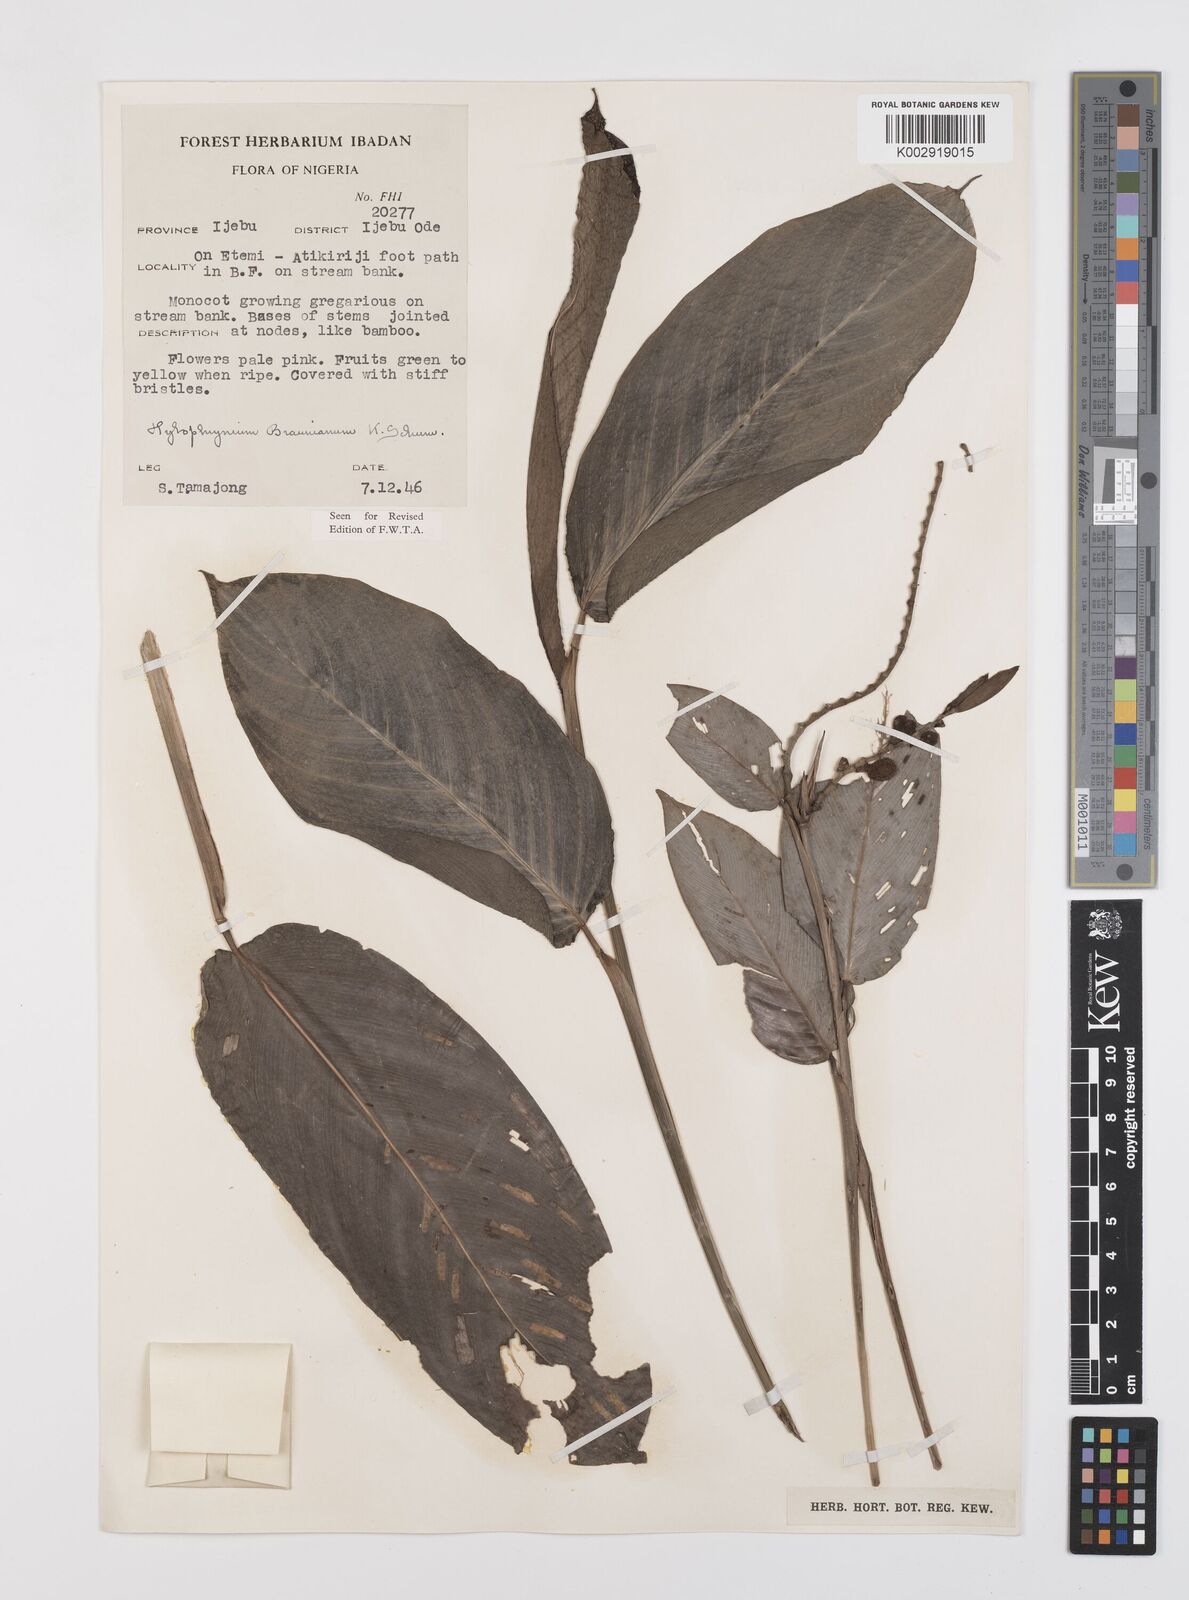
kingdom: Plantae
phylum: Tracheophyta
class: Liliopsida
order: Zingiberales
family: Marantaceae
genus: Trachyphrynium
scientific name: Trachyphrynium braunianum
